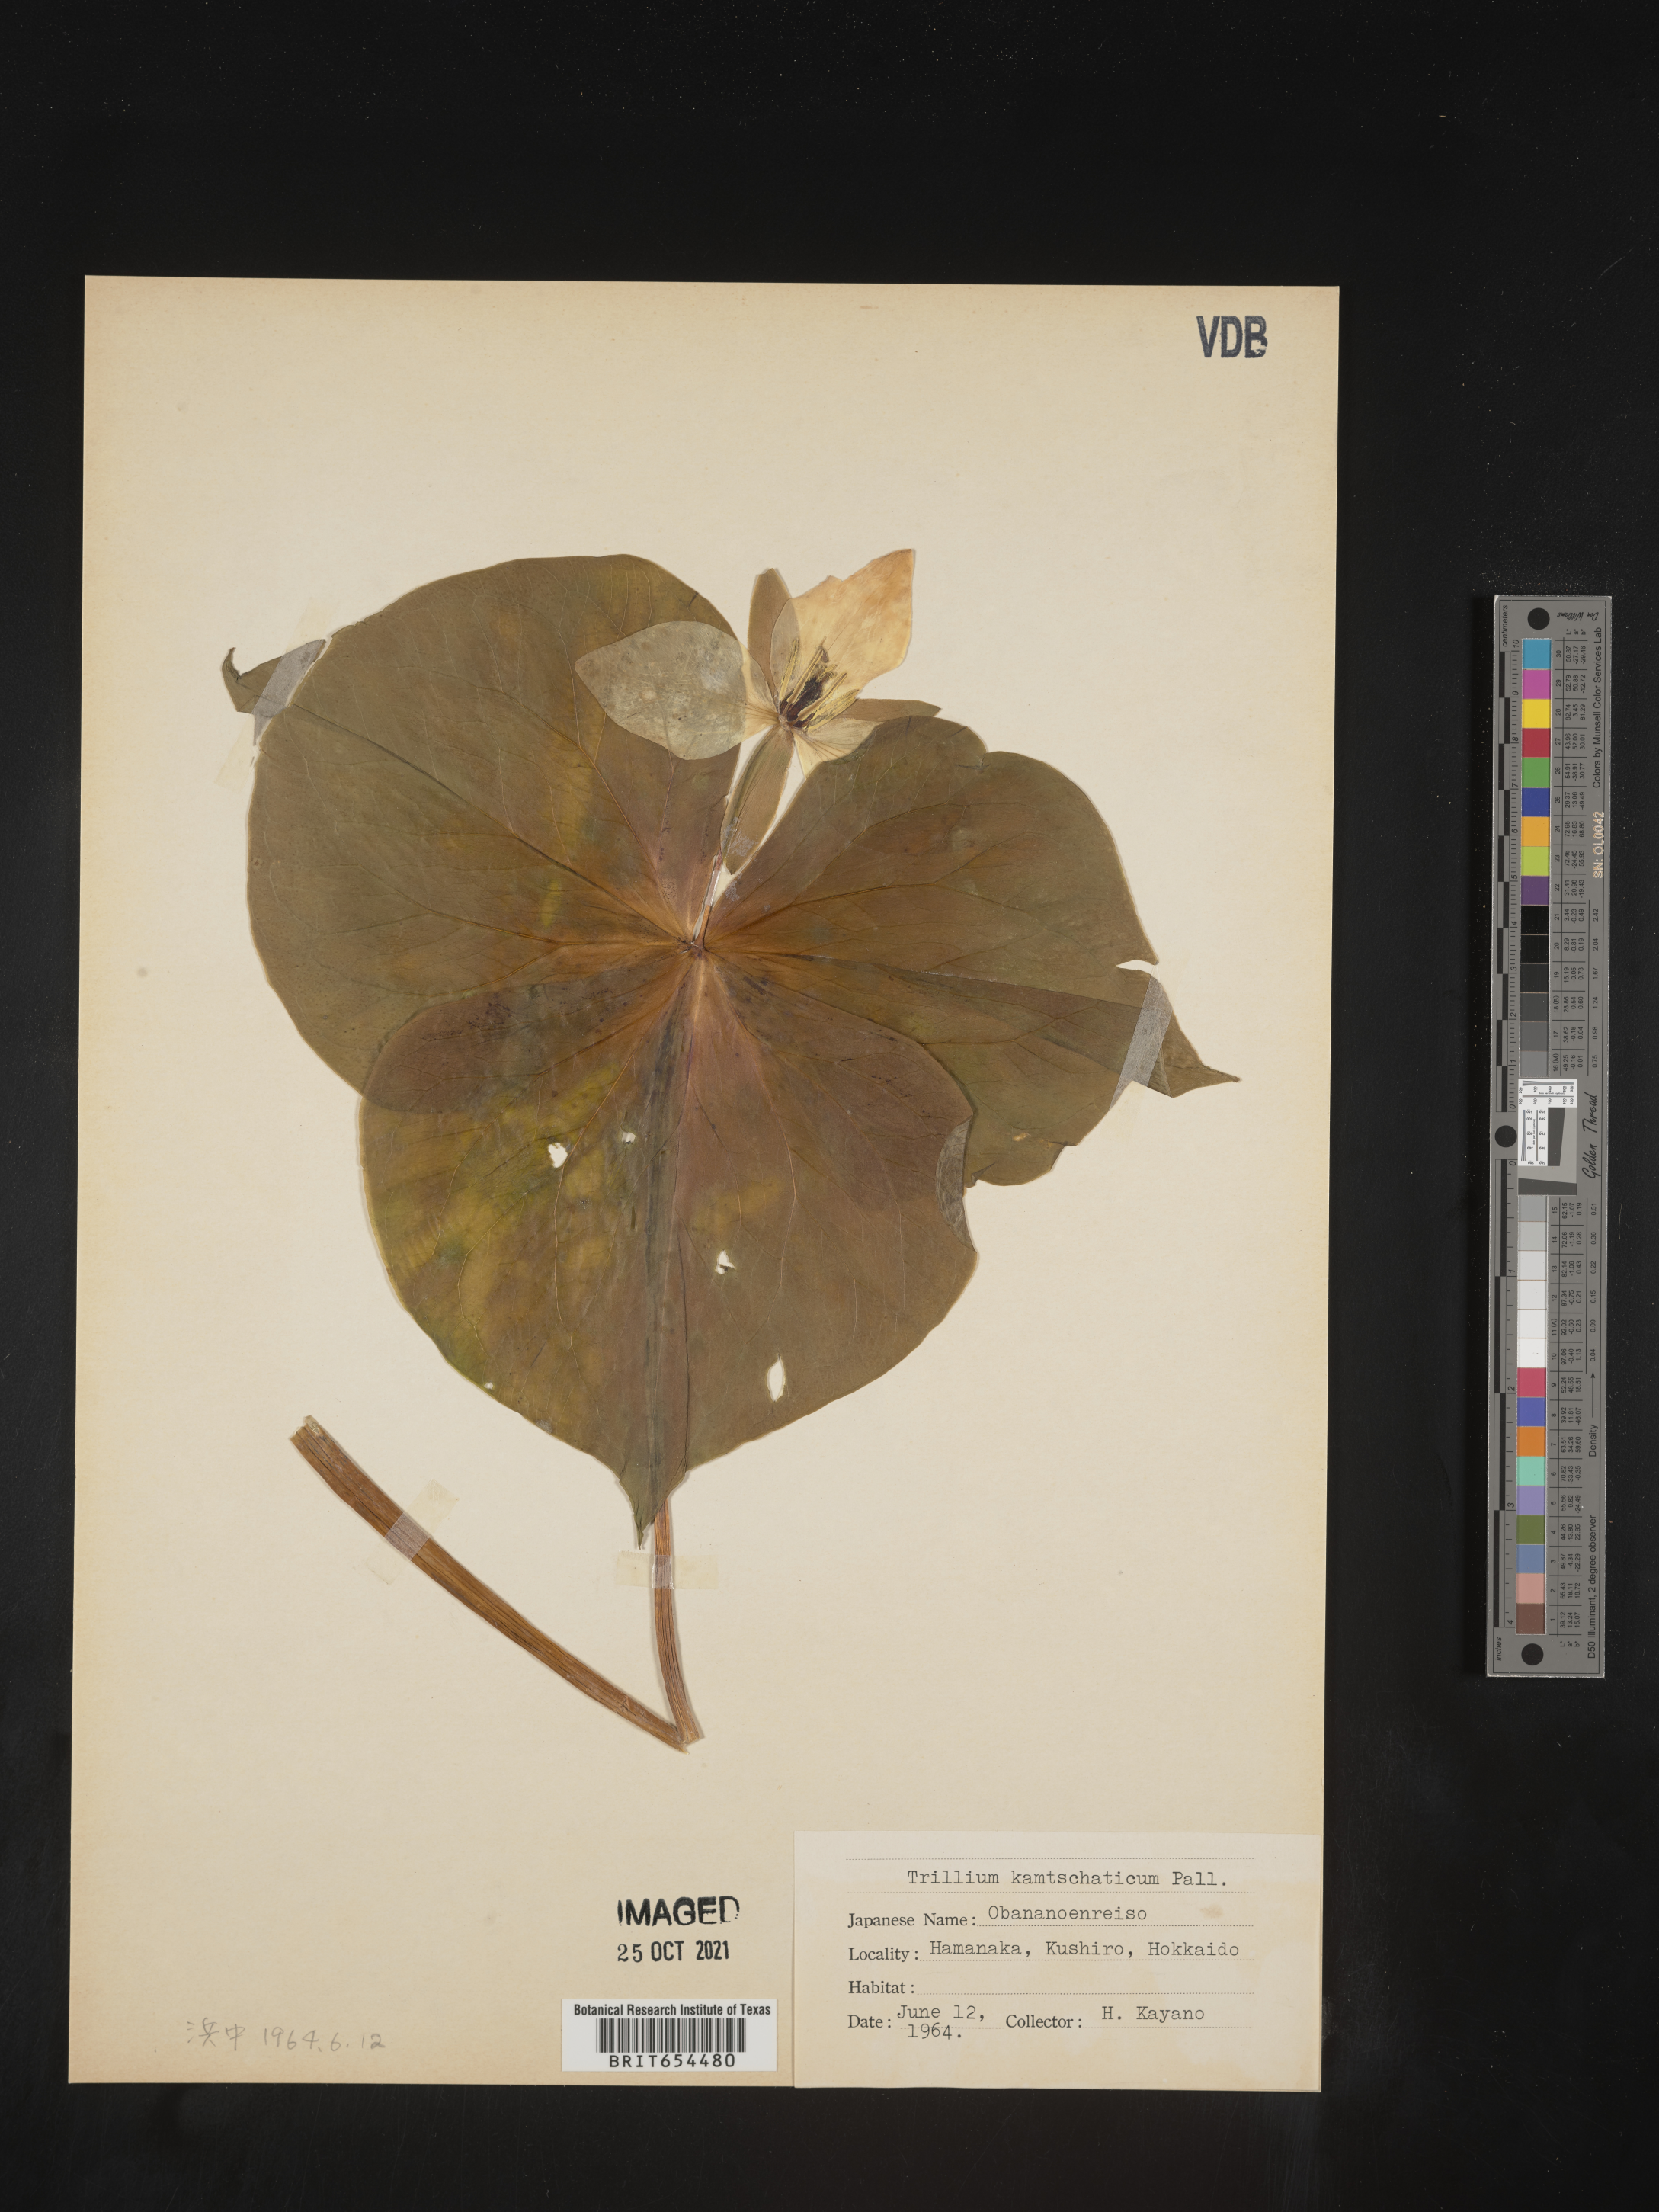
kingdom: Plantae
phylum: Tracheophyta
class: Liliopsida
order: Liliales
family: Melanthiaceae
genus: Trillium
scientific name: Trillium
